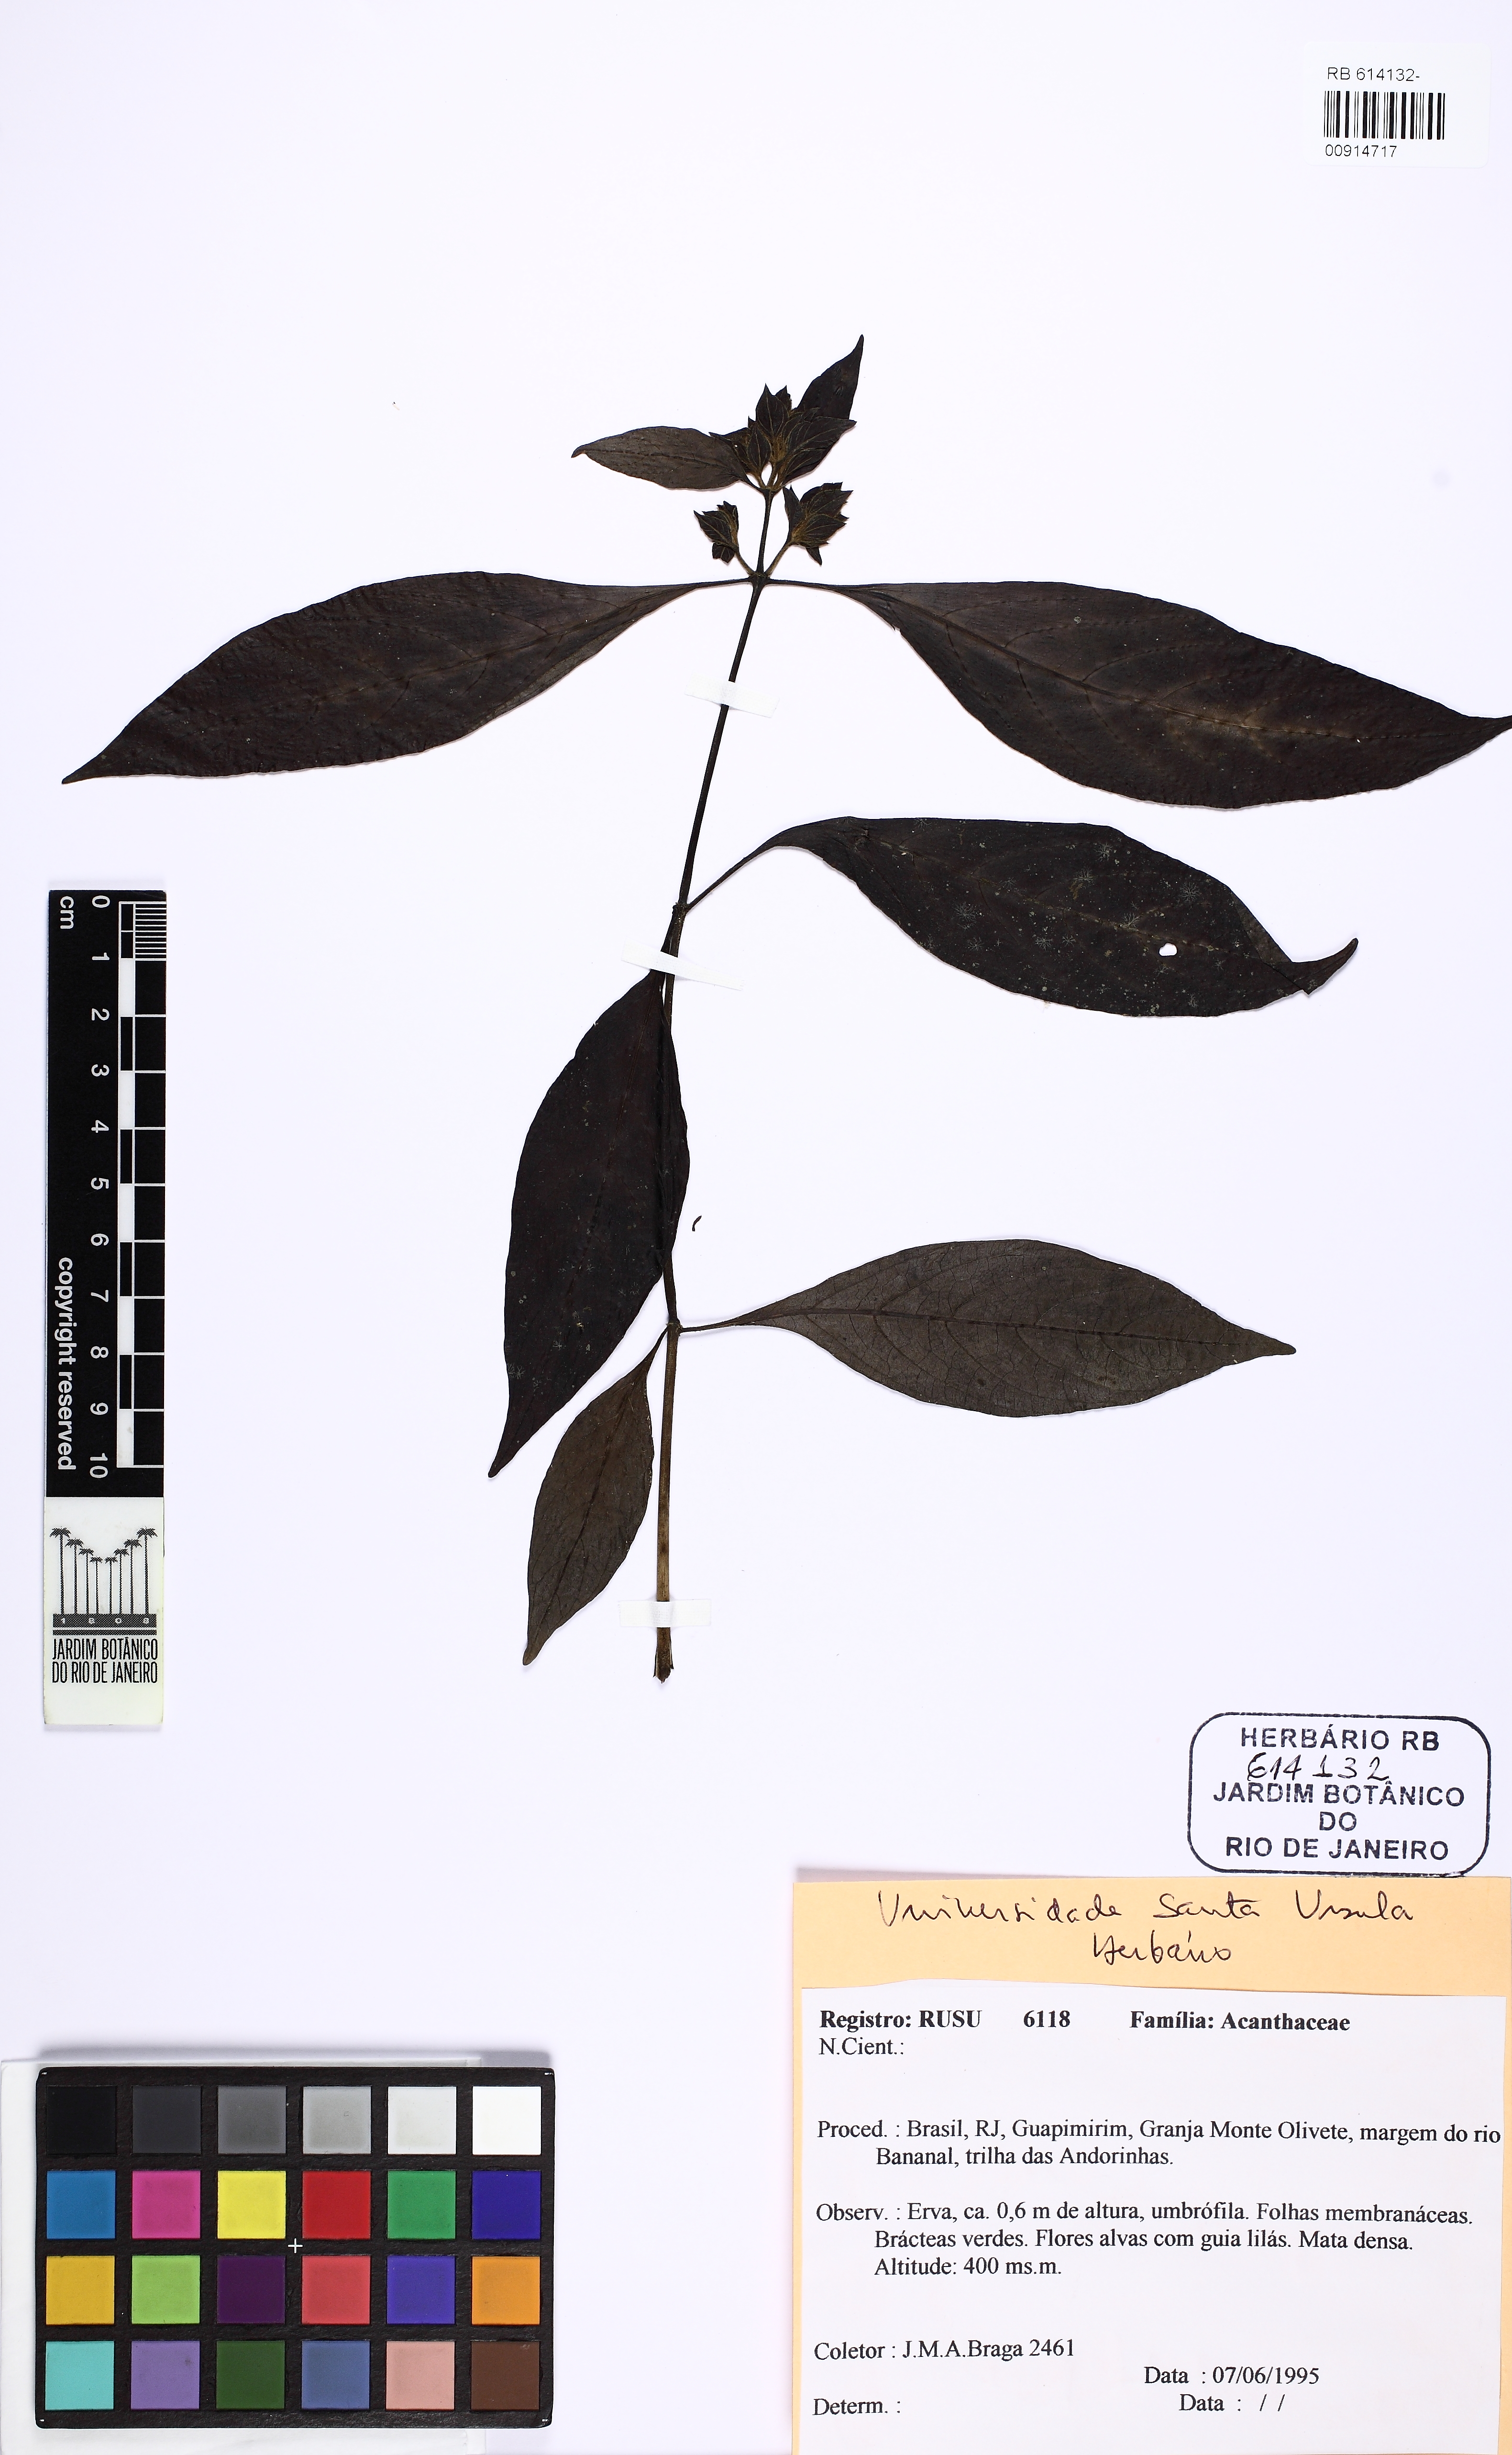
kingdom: Plantae
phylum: Tracheophyta
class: Magnoliopsida
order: Lamiales
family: Acanthaceae
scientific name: Acanthaceae
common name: Acanthaceae
